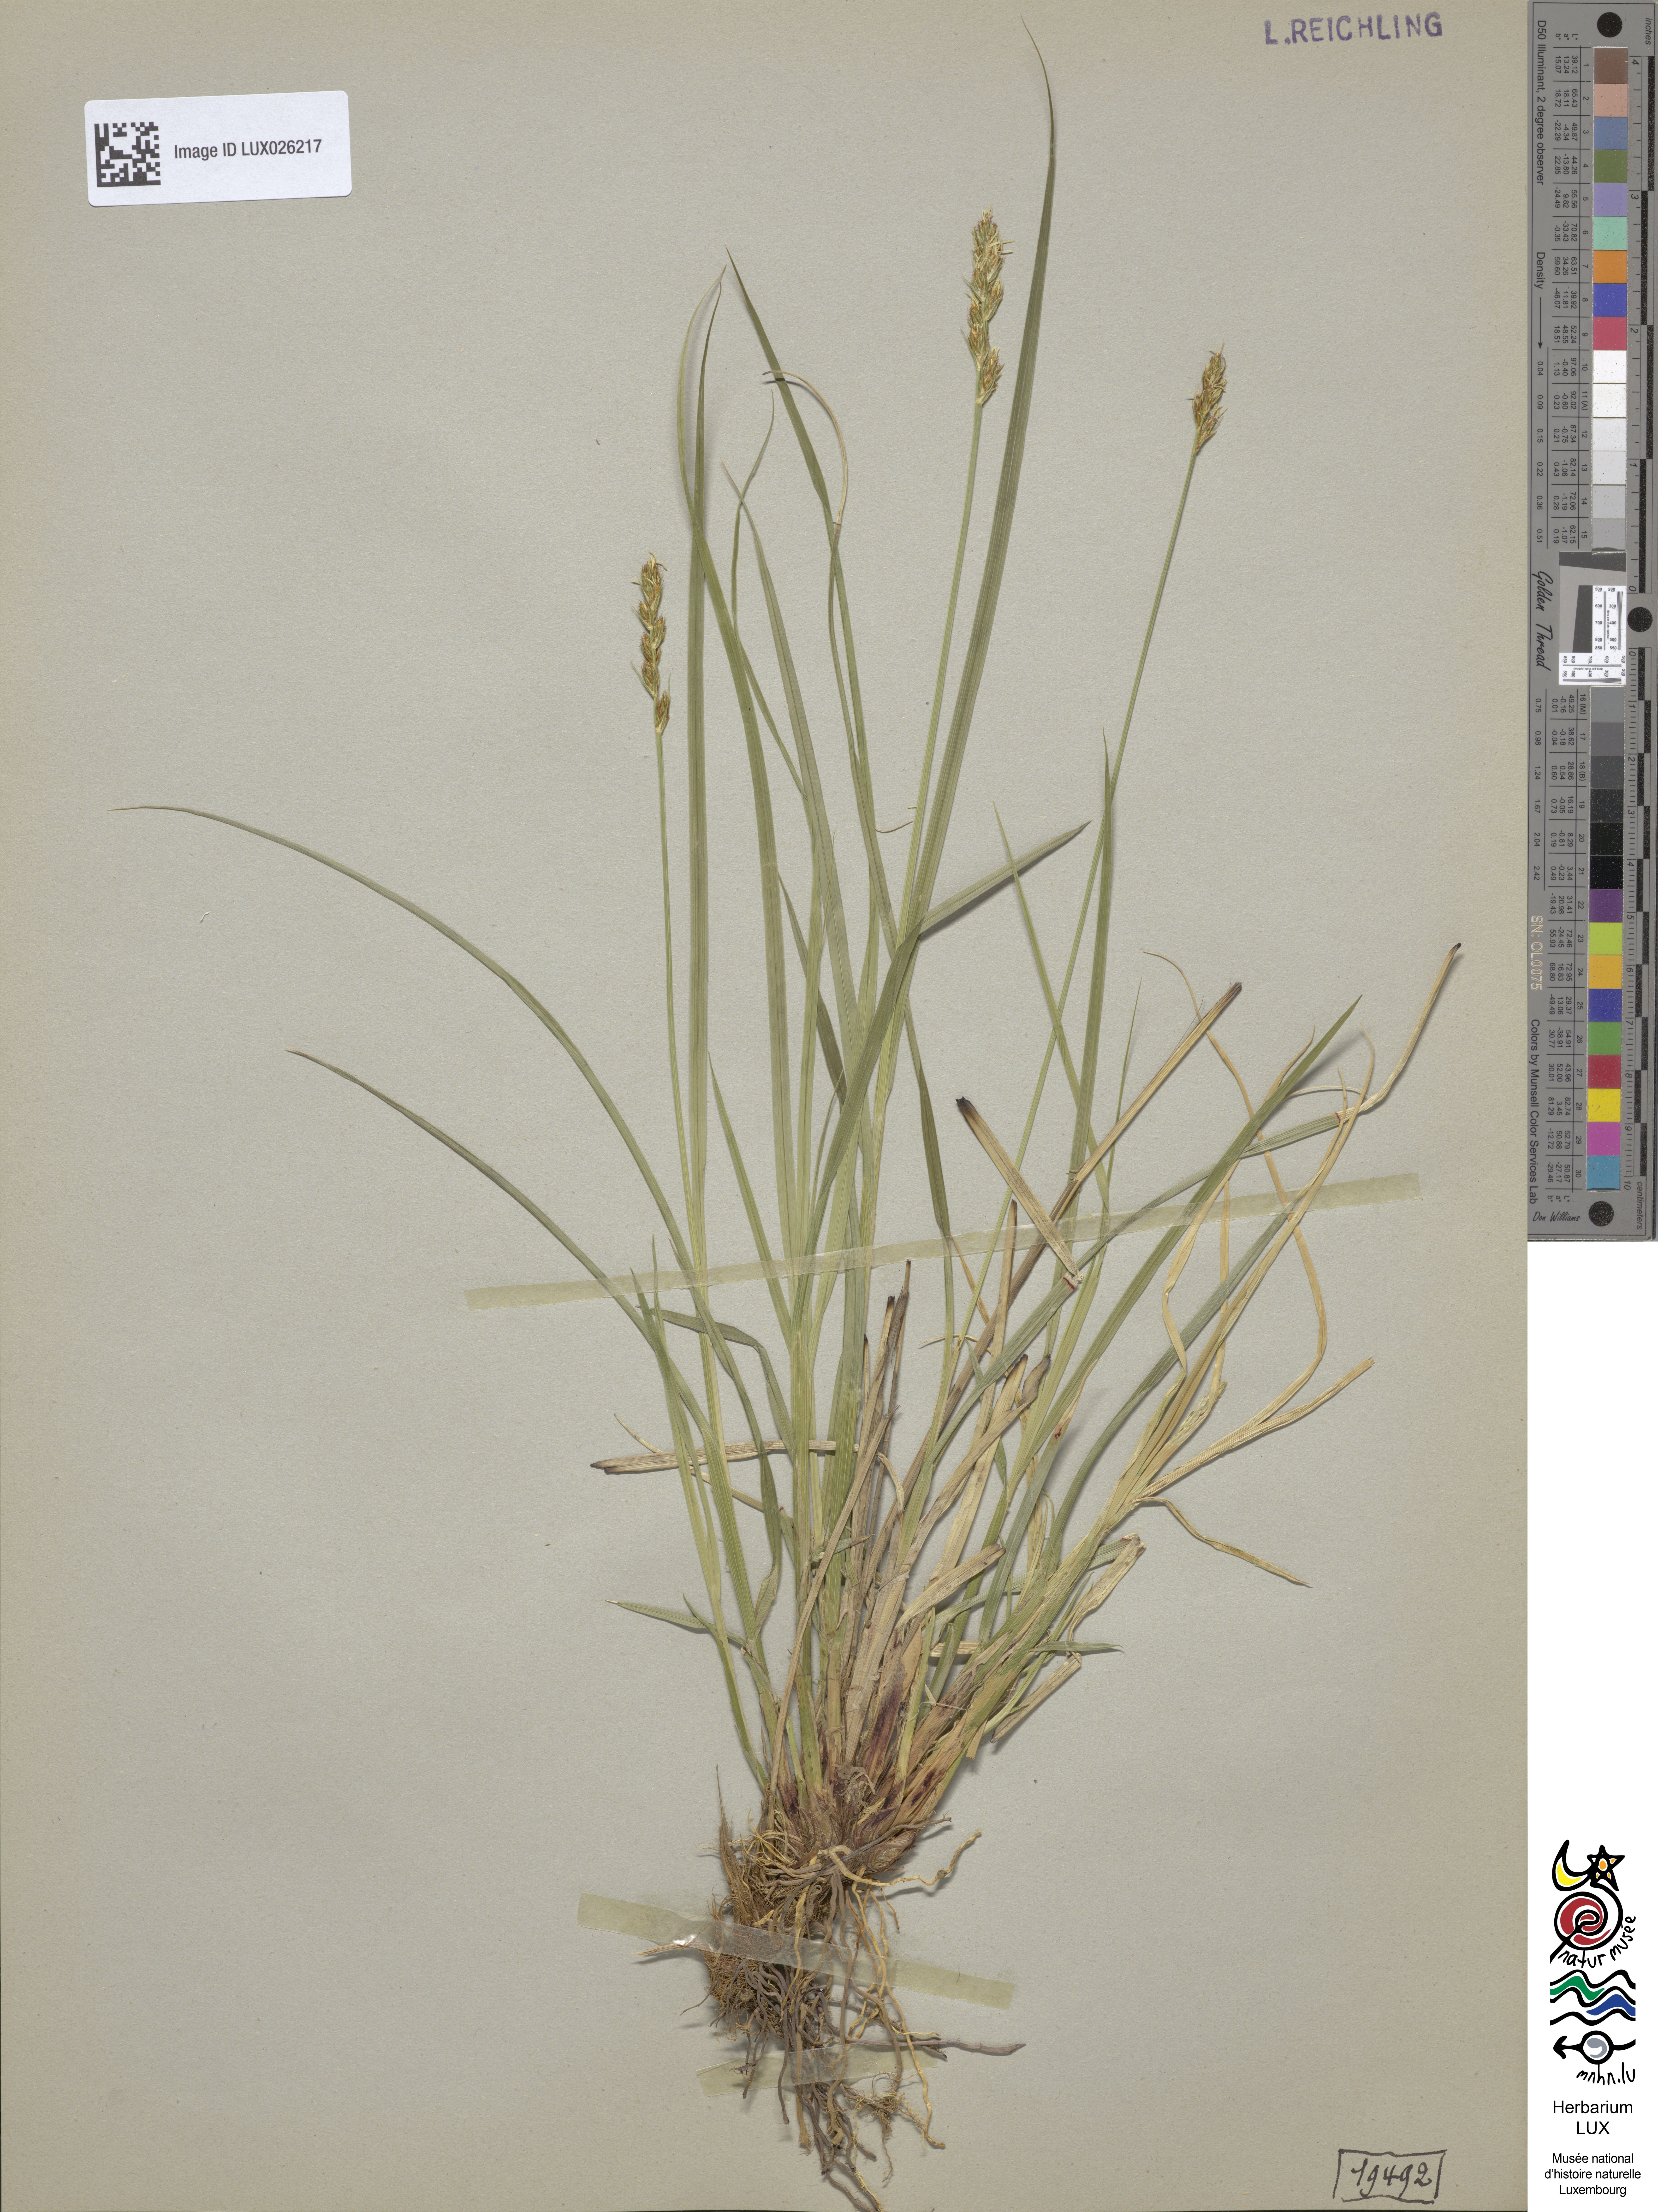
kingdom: Plantae
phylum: Tracheophyta
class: Liliopsida
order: Poales
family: Cyperaceae
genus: Carex
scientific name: Carex spicata
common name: Spiked sedge
